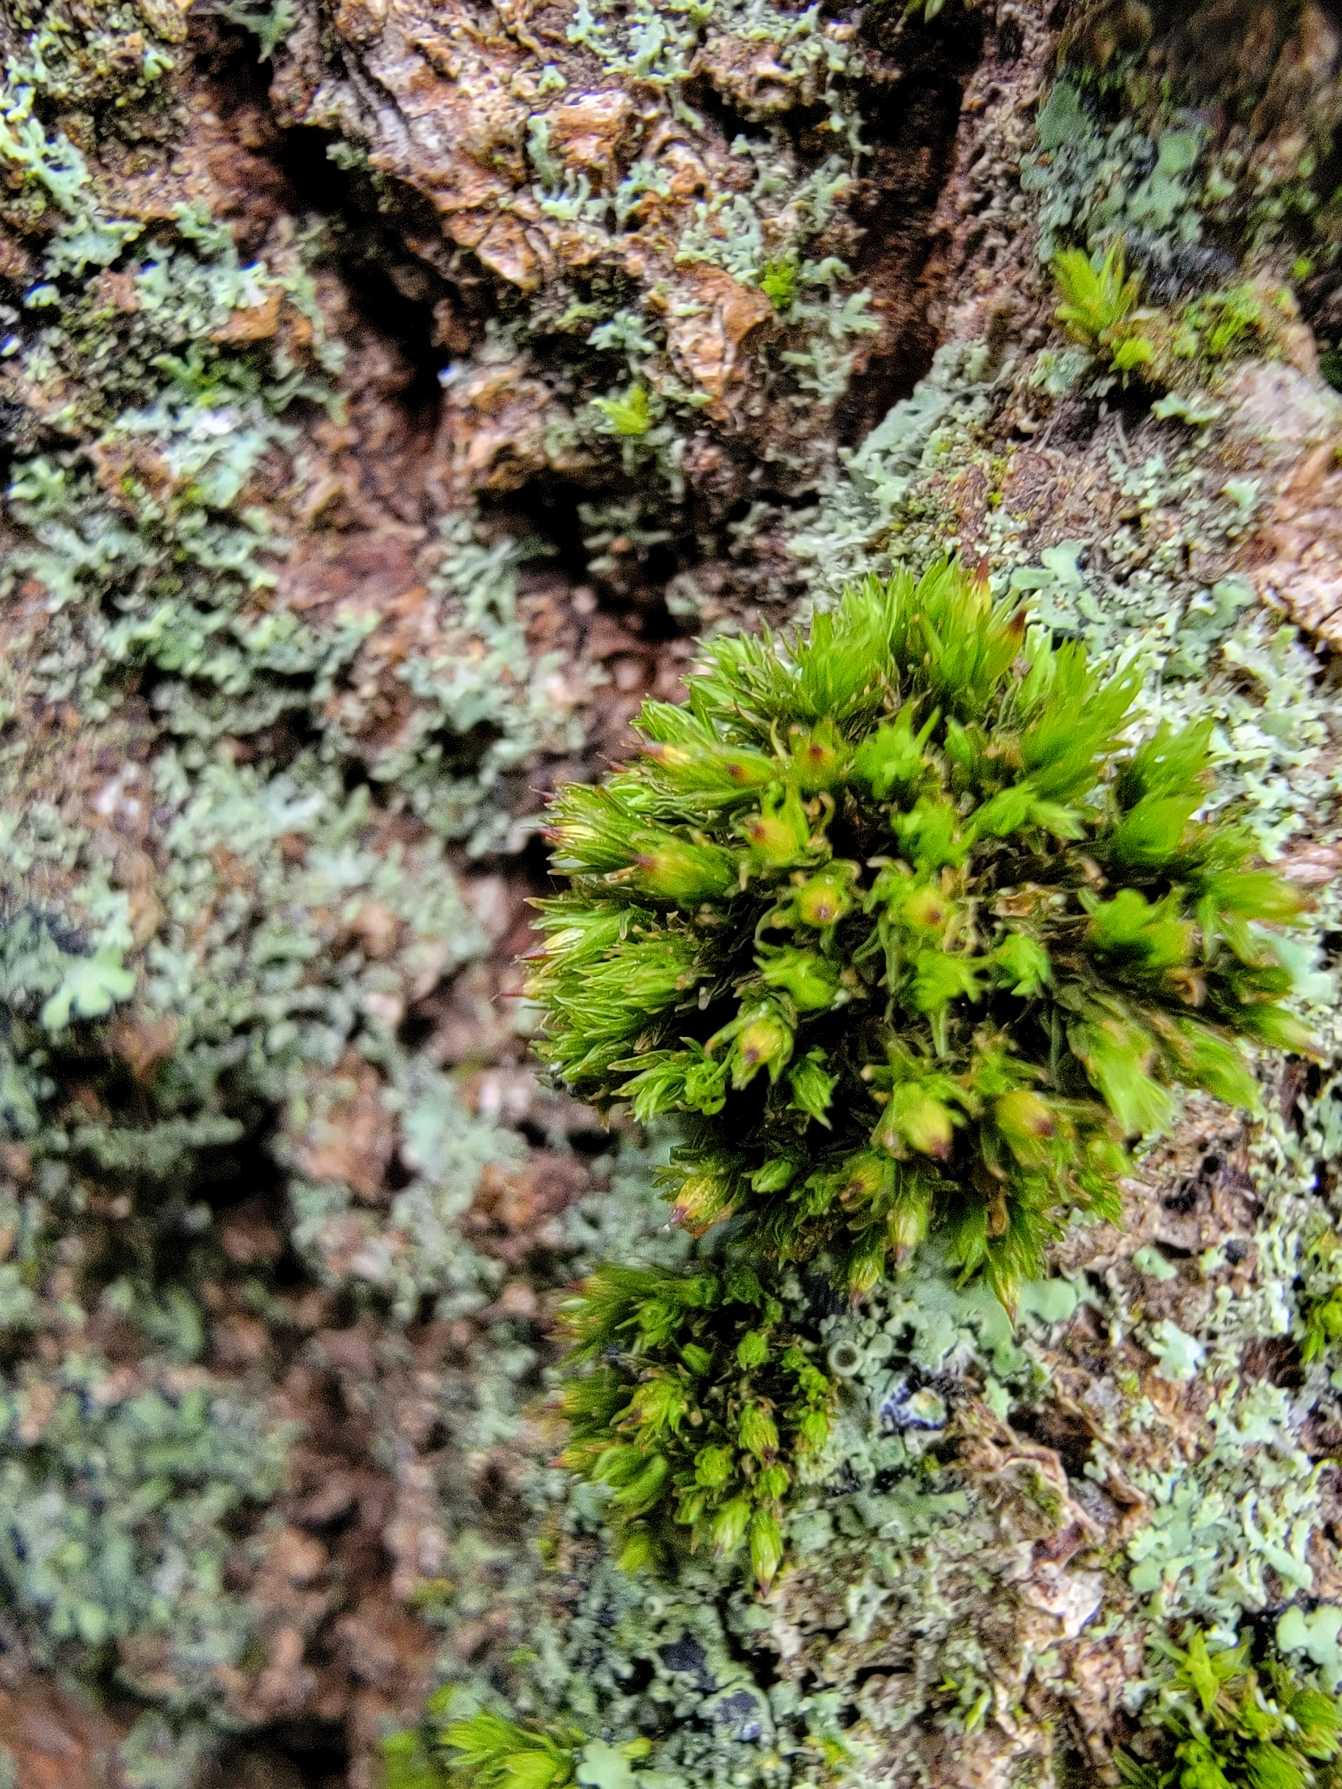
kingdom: Plantae
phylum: Bryophyta
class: Bryopsida
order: Orthotrichales
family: Orthotrichaceae
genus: Orthotrichum
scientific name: Orthotrichum stramineum
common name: Strågul furehætte
